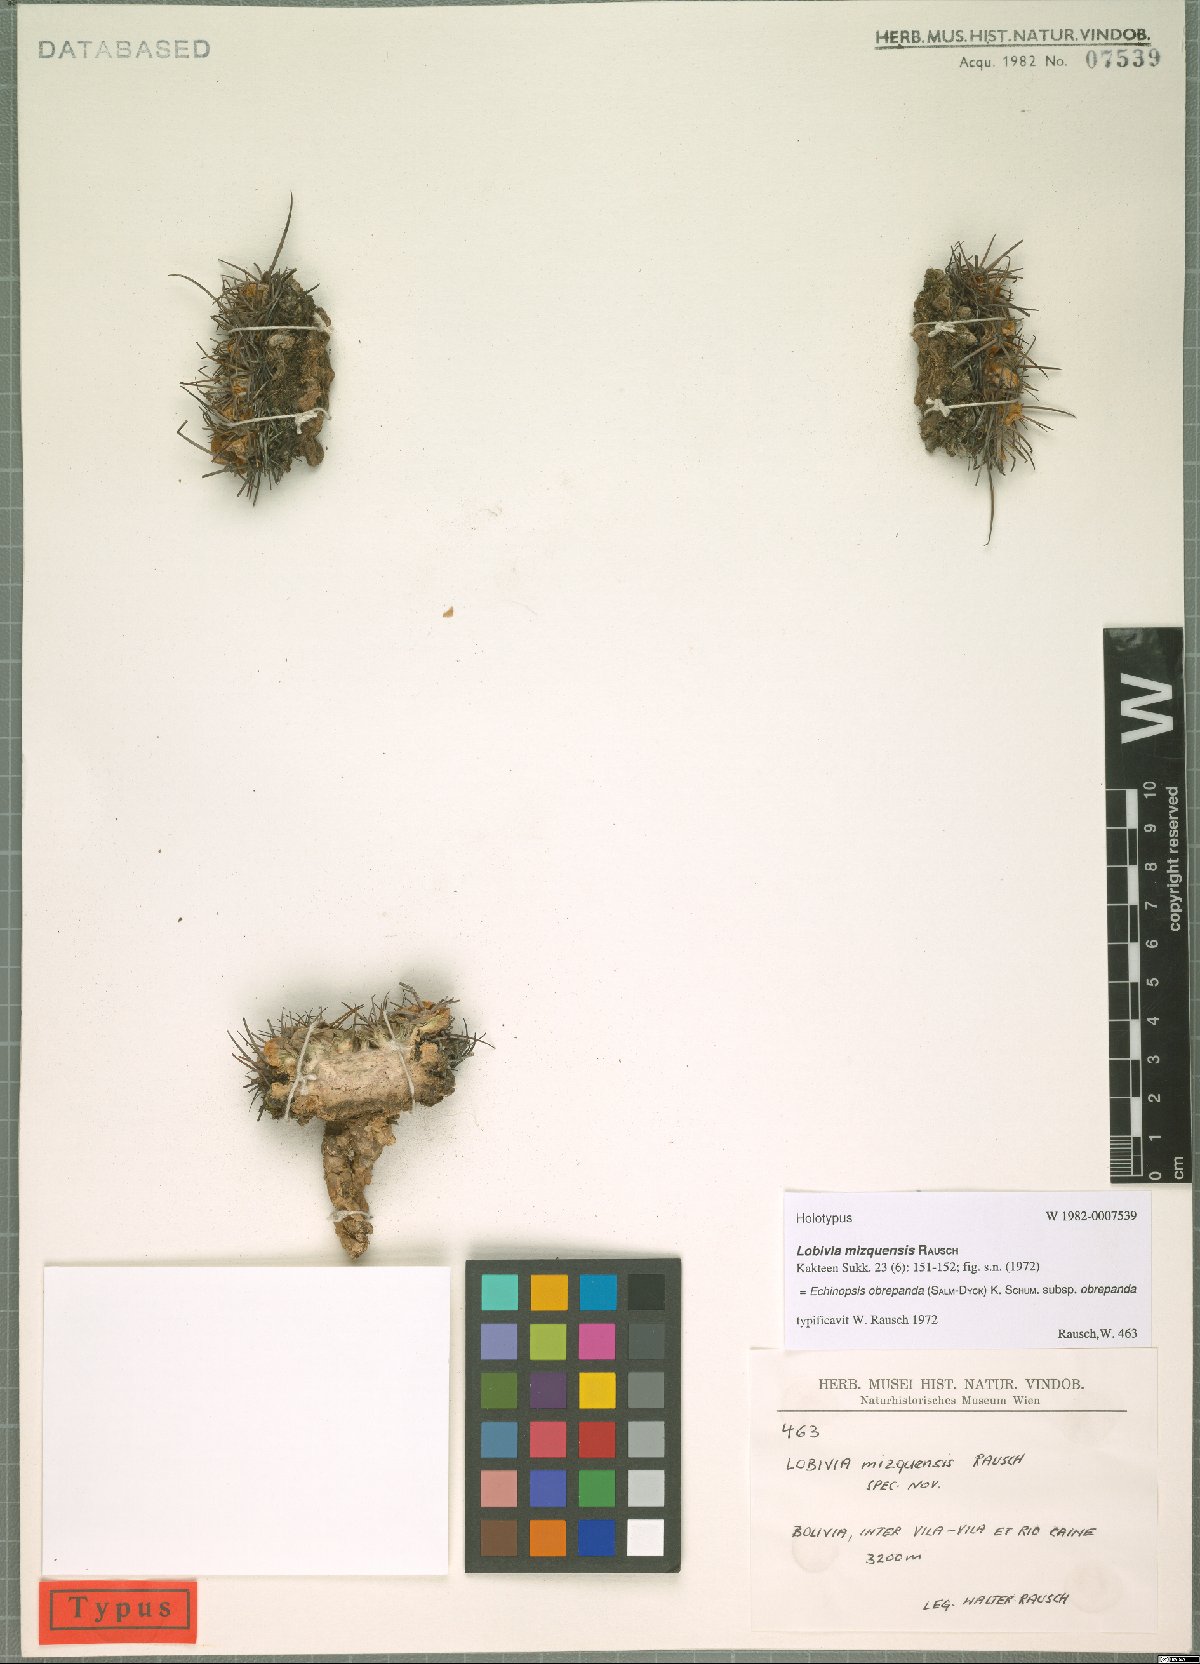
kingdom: Plantae
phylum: Tracheophyta
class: Magnoliopsida
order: Caryophyllales
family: Cactaceae
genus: Lobivia
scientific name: Lobivia obrepanda
